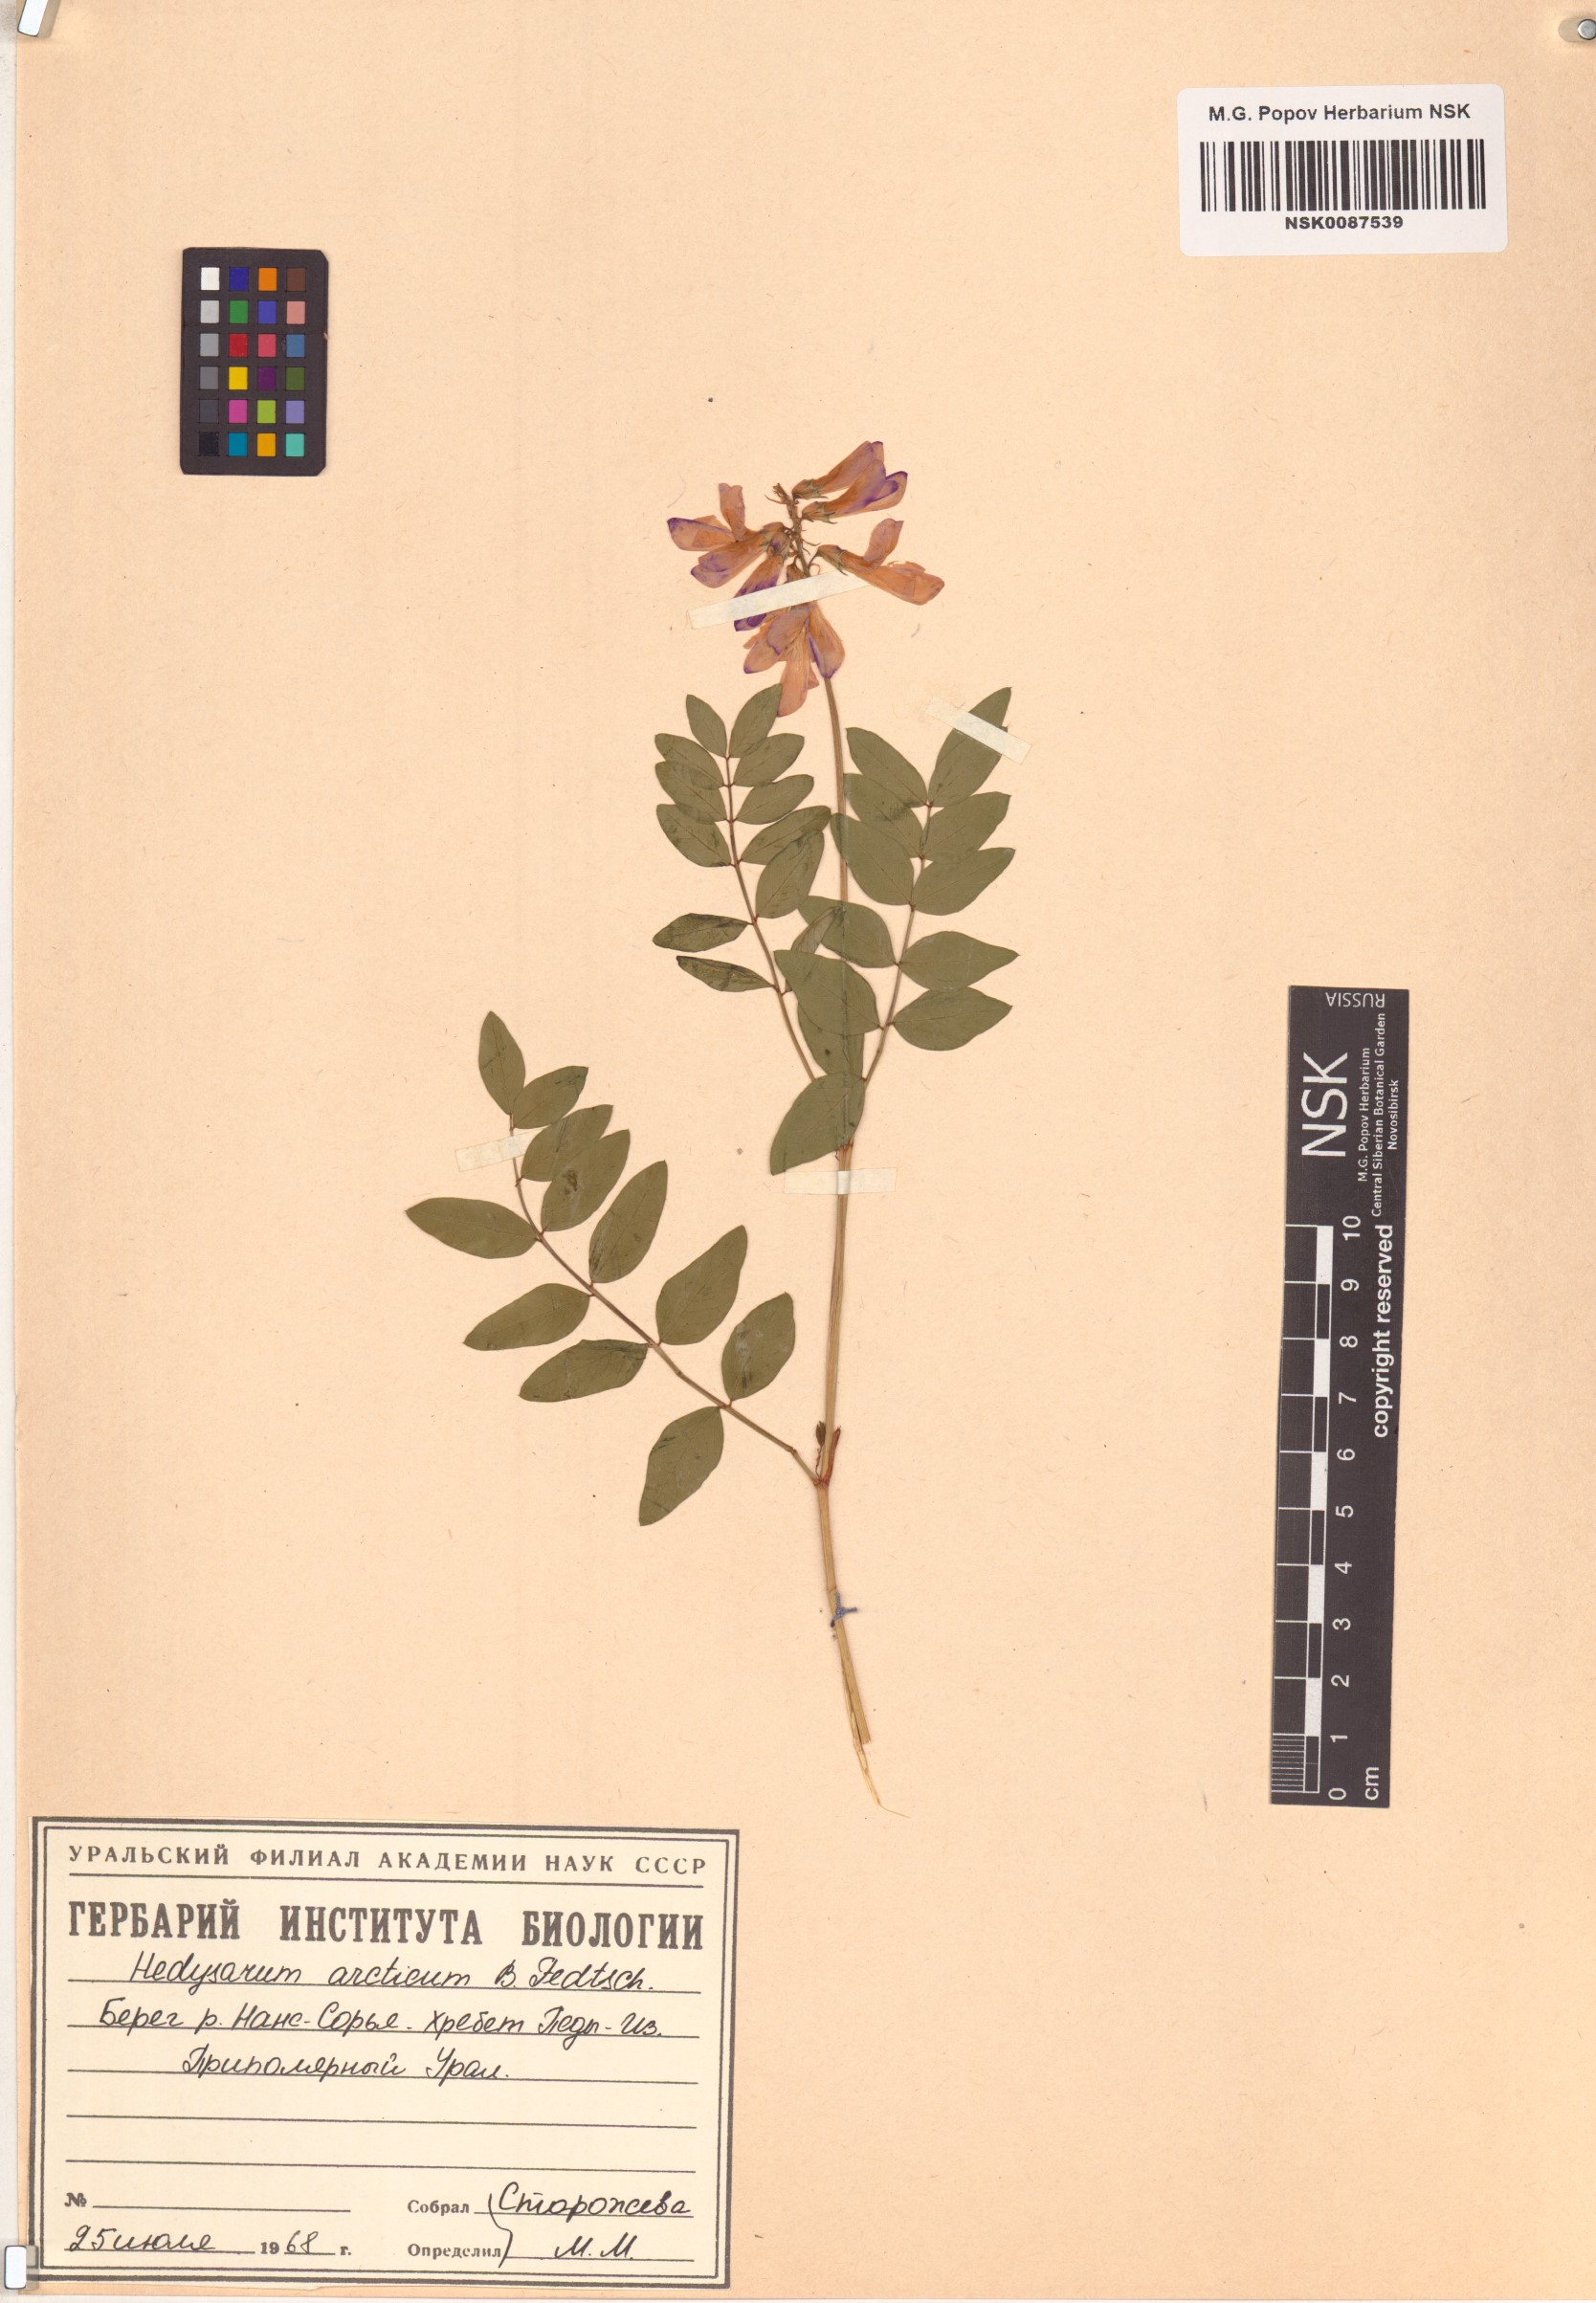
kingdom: Plantae
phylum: Tracheophyta
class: Magnoliopsida
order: Fabales
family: Fabaceae
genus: Hedysarum
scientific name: Hedysarum hedysaroides
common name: Alpine french-honeysuckle
